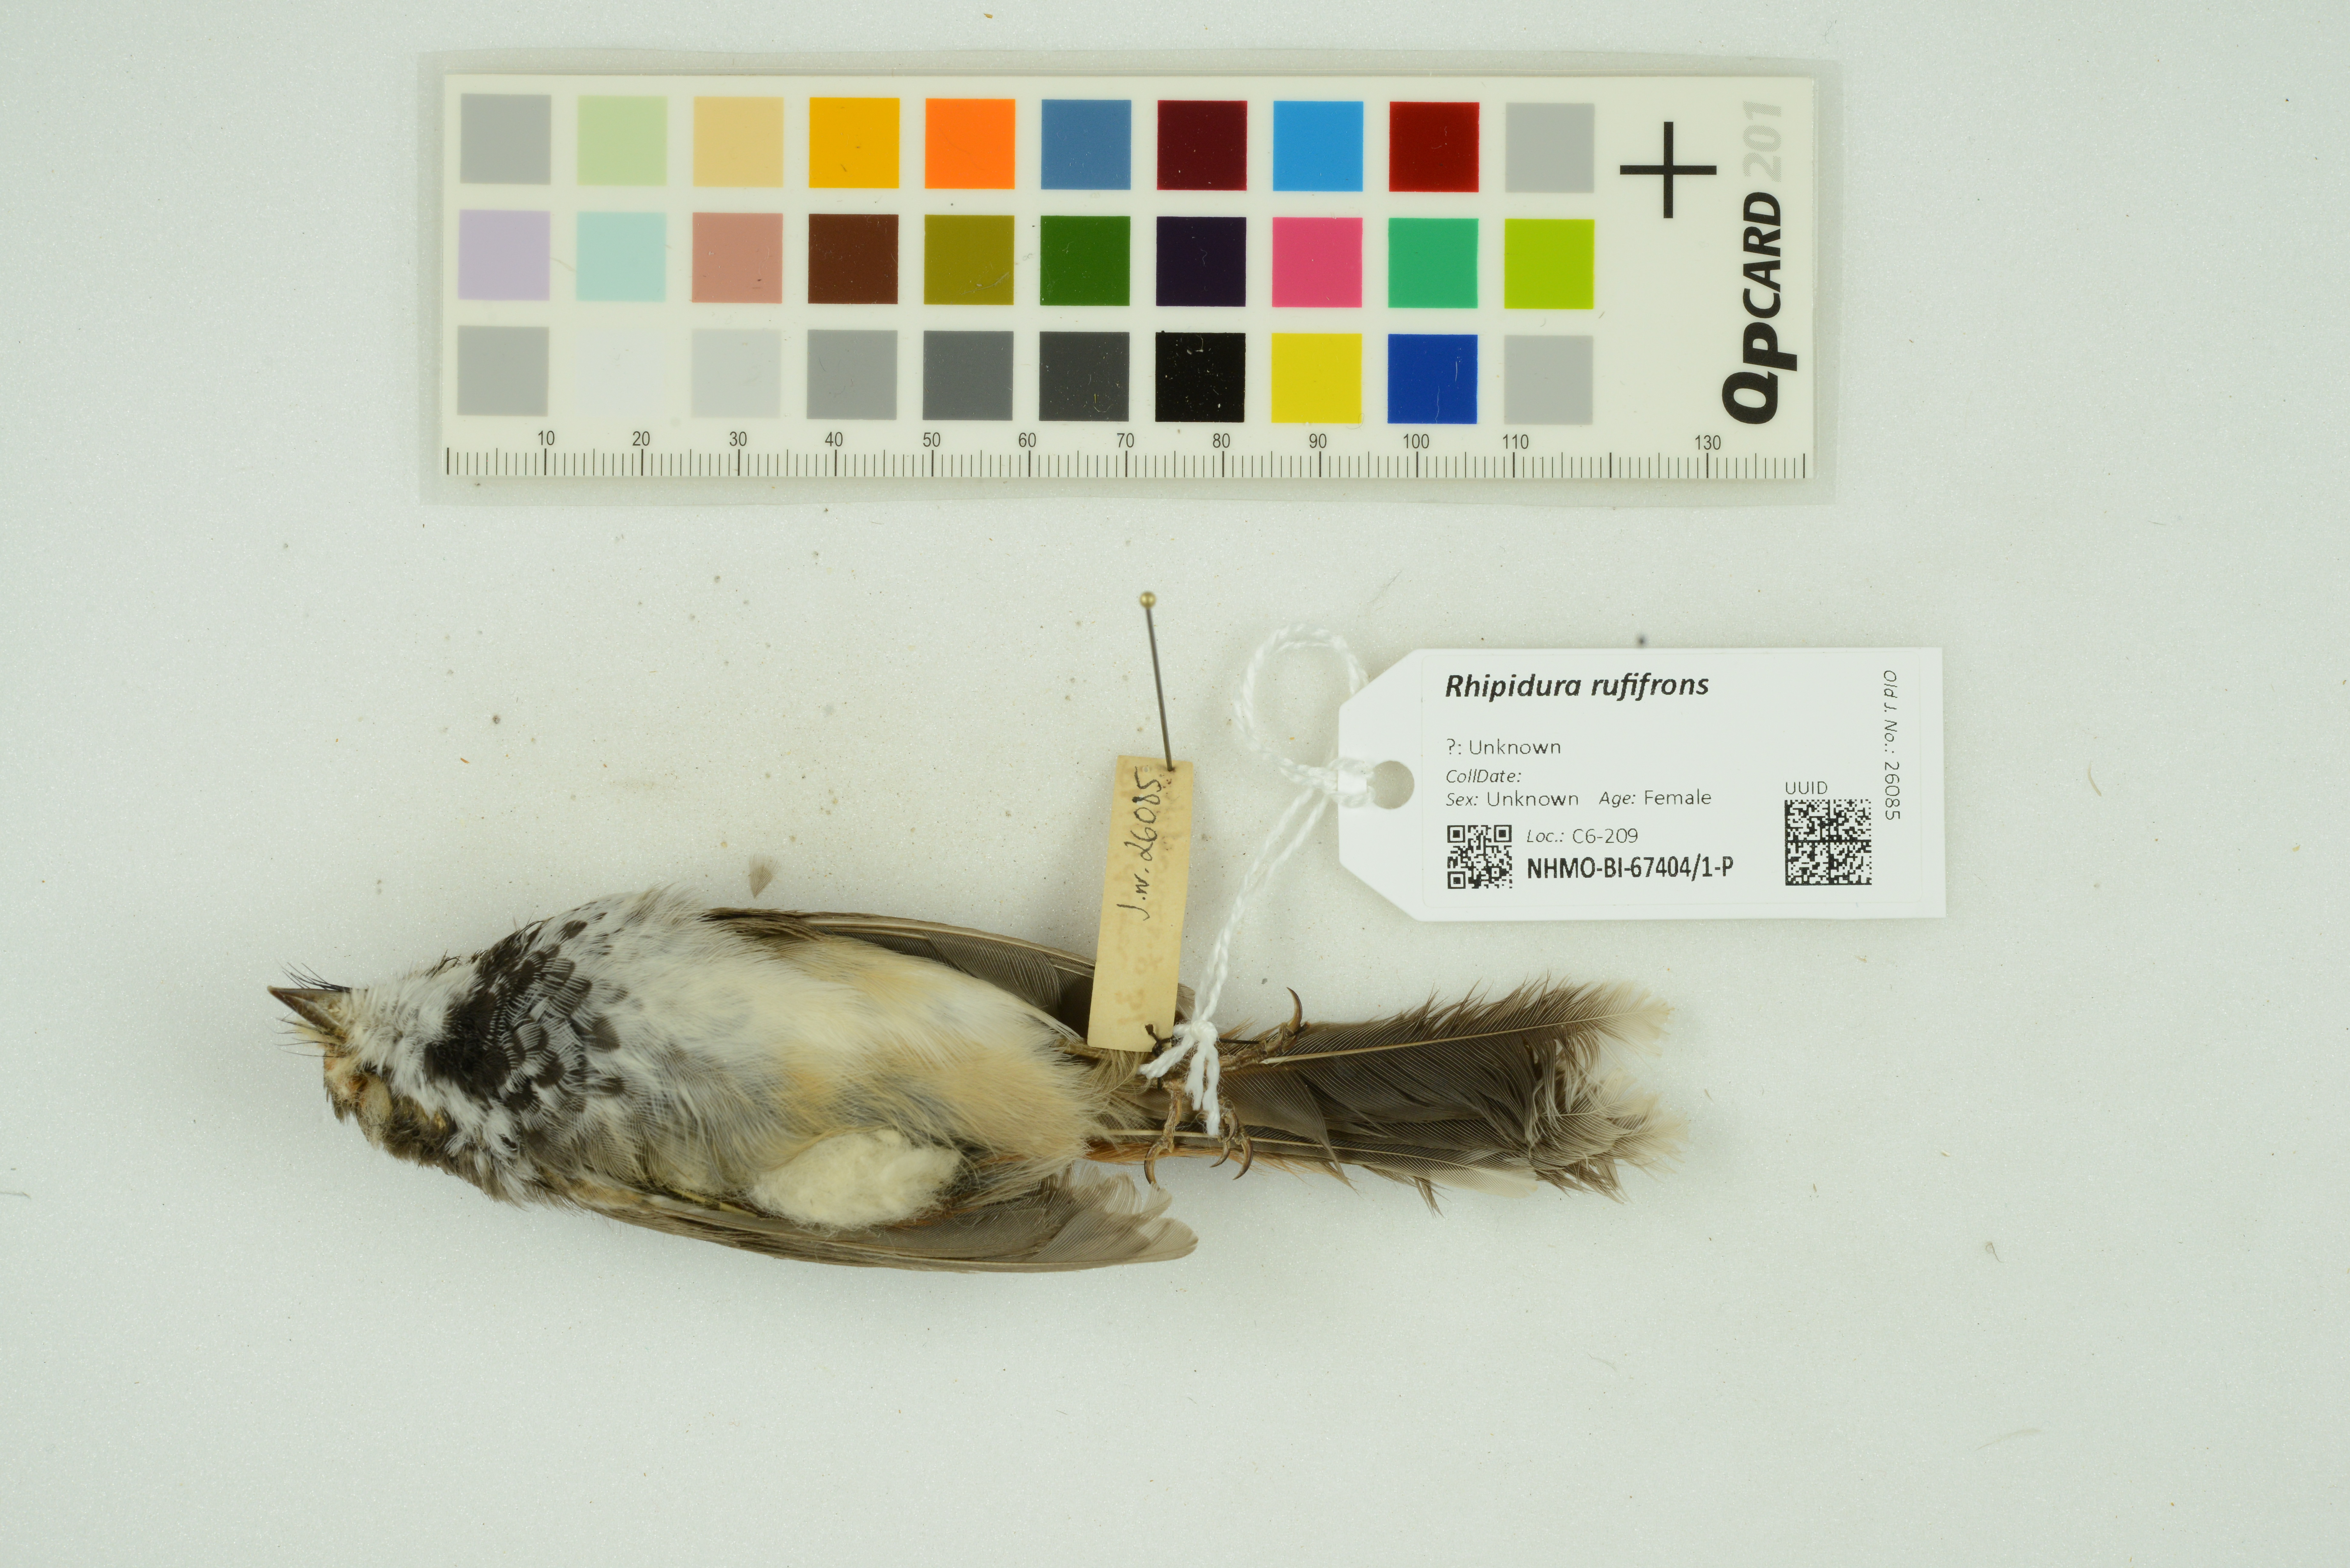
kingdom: Animalia
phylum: Chordata
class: Aves
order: Passeriformes
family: Rhipiduridae
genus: Rhipidura
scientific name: Rhipidura rufifrons
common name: Rufous fantail
